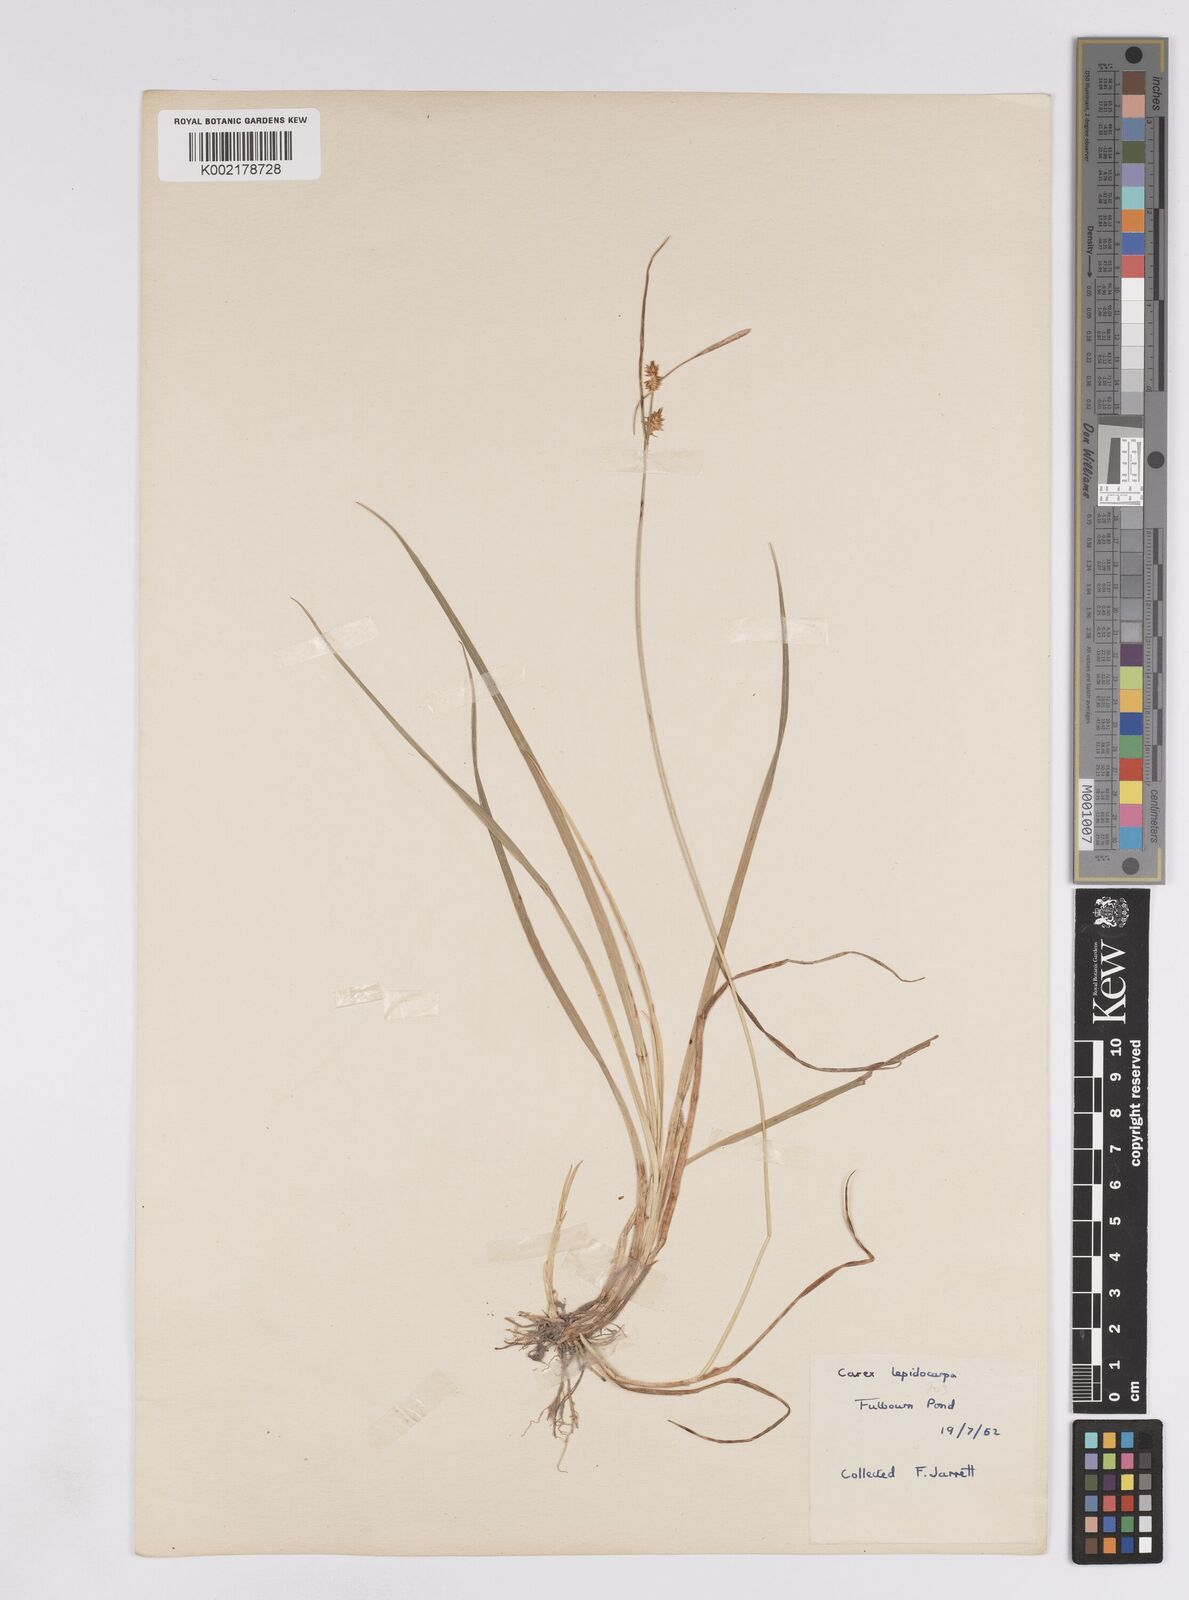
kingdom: Plantae
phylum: Tracheophyta
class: Liliopsida
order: Poales
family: Cyperaceae
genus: Carex
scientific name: Carex lepidocarpa
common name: Long-stalked yellow-sedge
